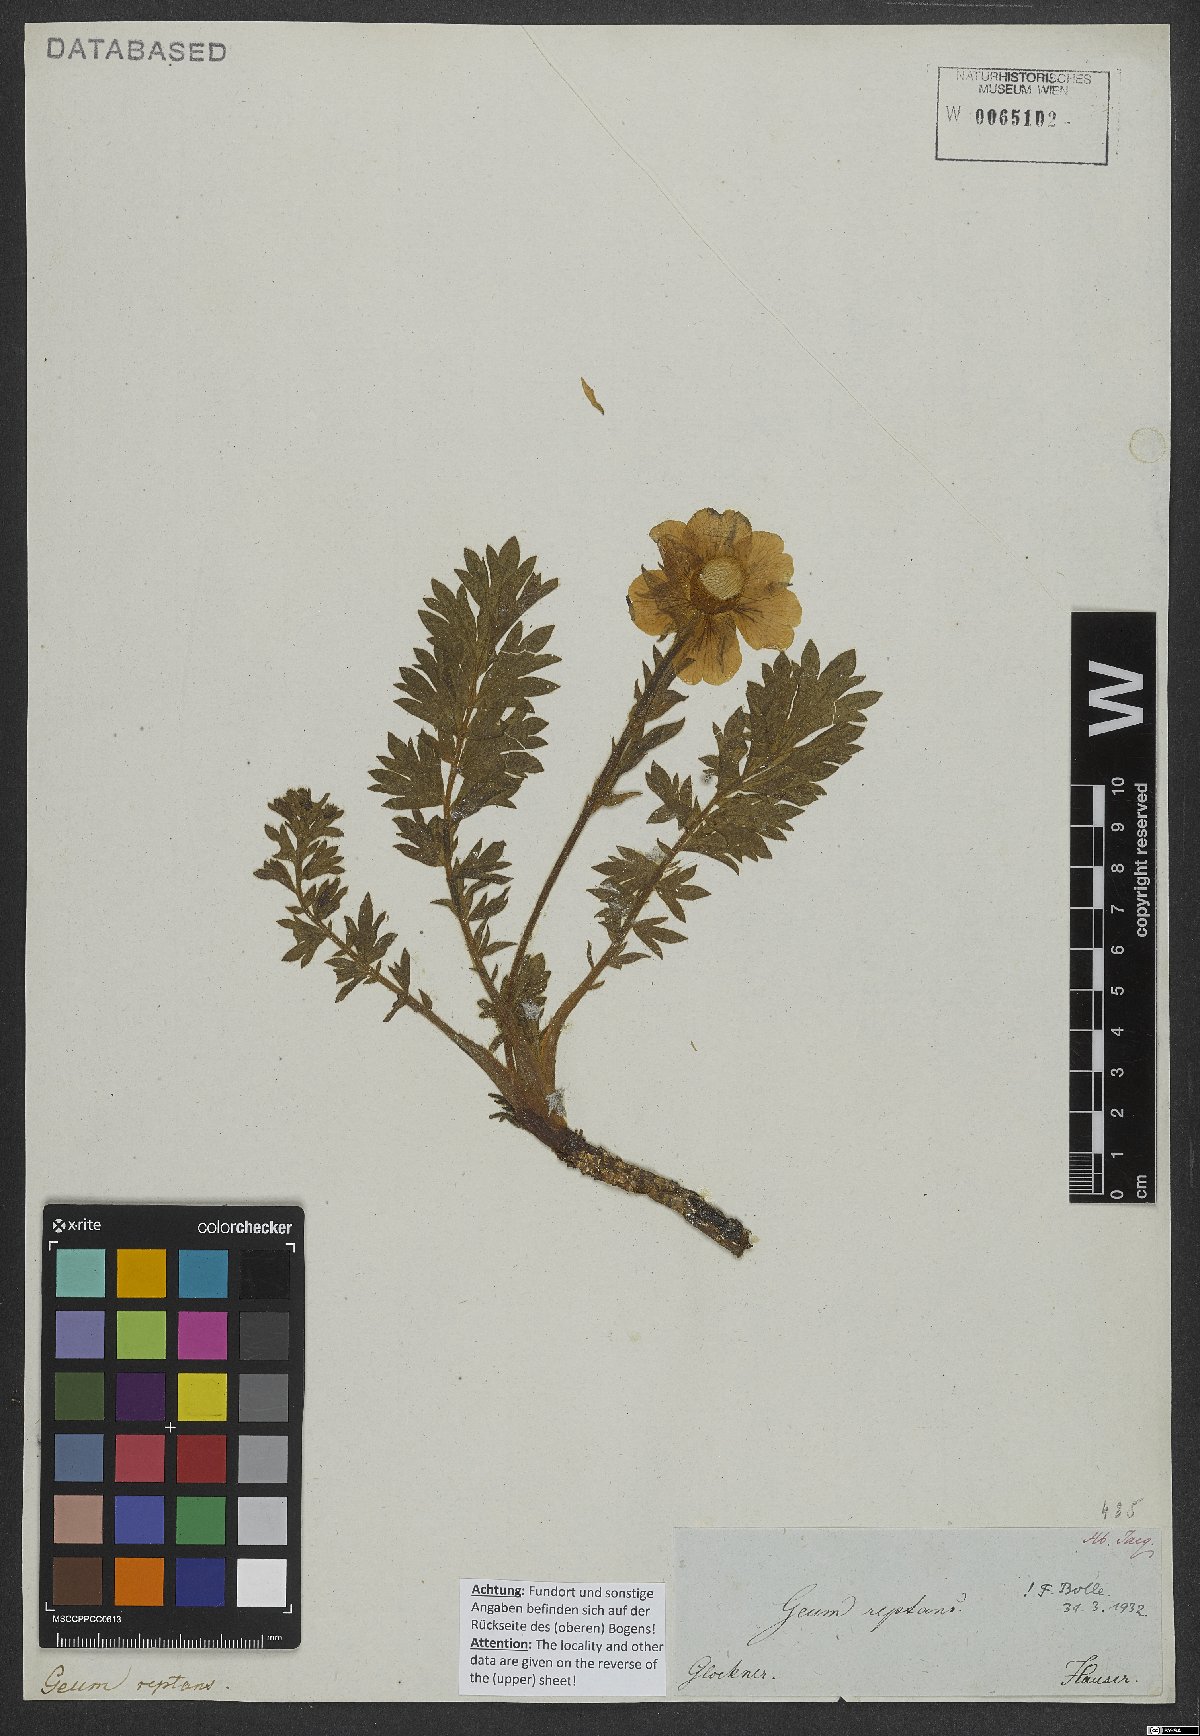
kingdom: Plantae
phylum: Tracheophyta
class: Magnoliopsida
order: Rosales
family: Rosaceae
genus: Geum
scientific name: Geum reptans
